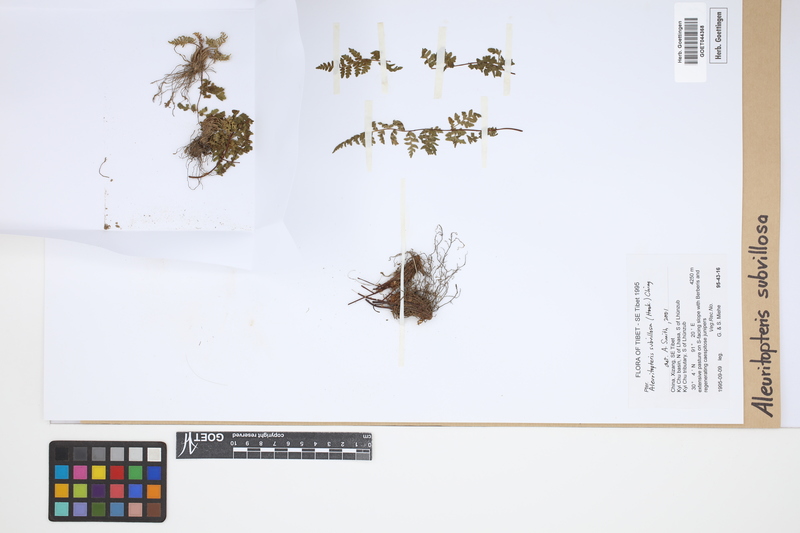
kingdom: Plantae
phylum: Tracheophyta
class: Polypodiopsida
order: Polypodiales
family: Pteridaceae
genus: Oeosporangium
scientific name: Oeosporangium subvillosum
